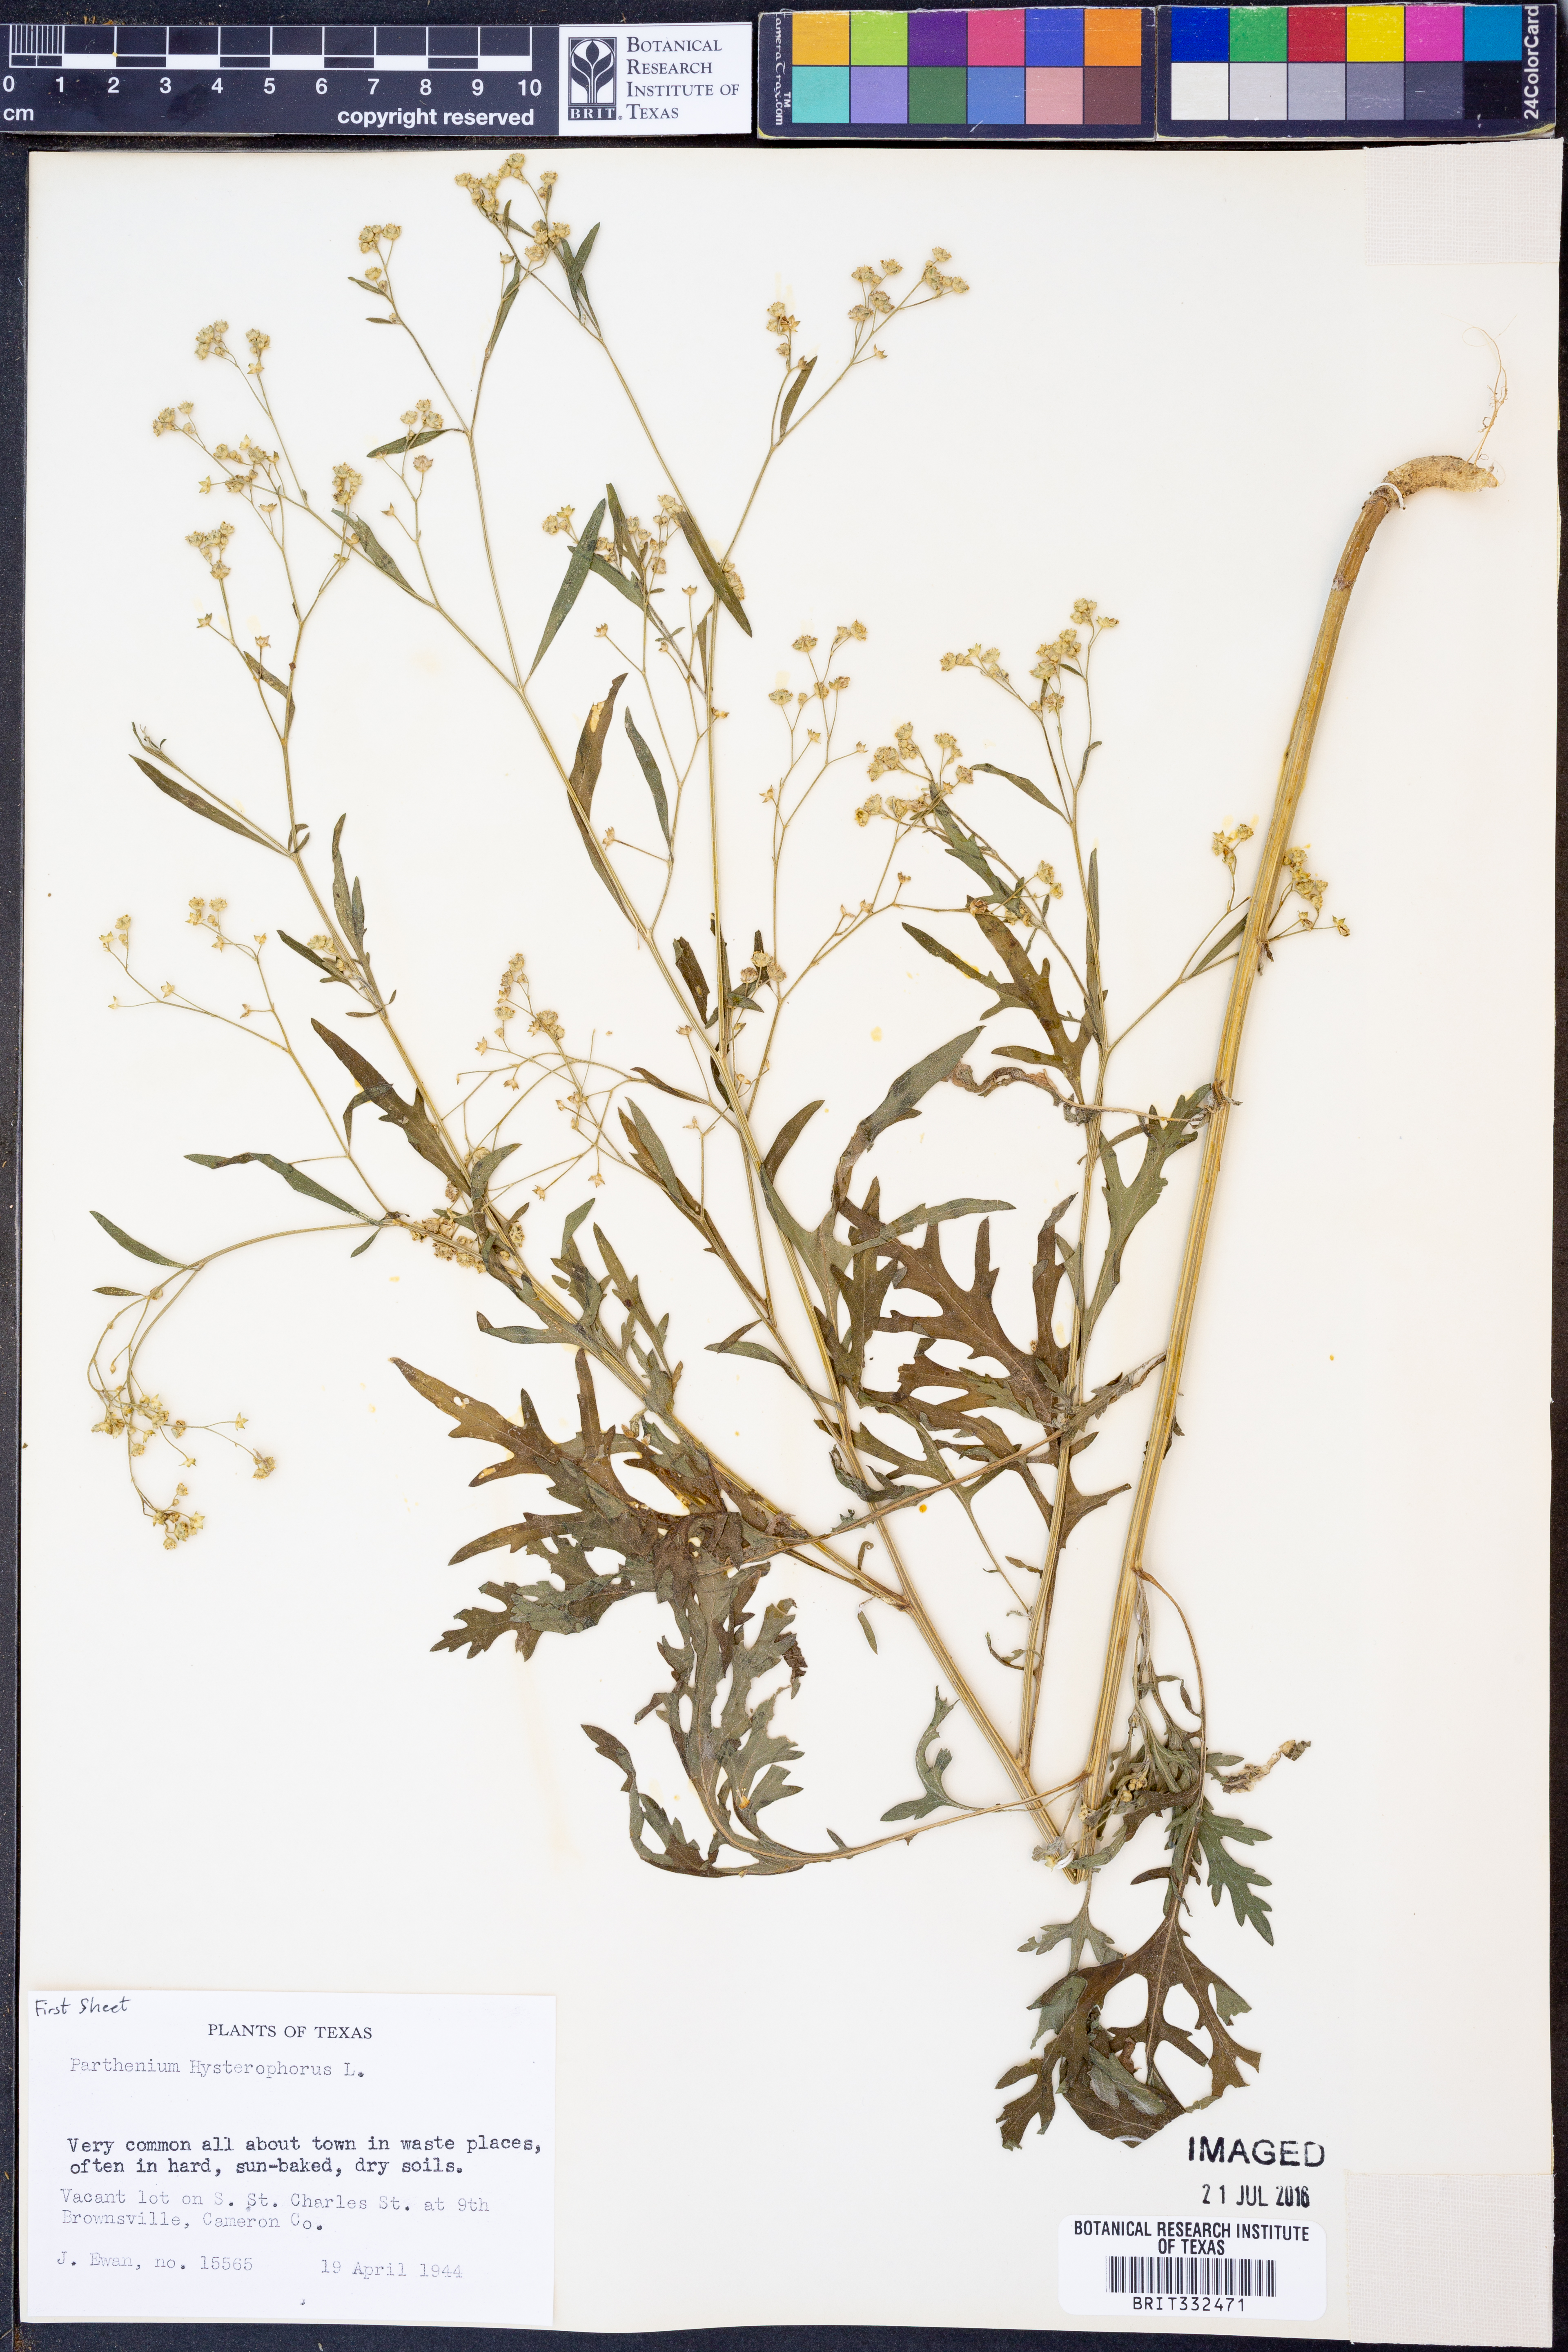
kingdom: Plantae
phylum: Tracheophyta
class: Magnoliopsida
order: Asterales
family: Asteraceae
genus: Parthenium
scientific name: Parthenium hysterophorus
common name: Santa maria feverfew
